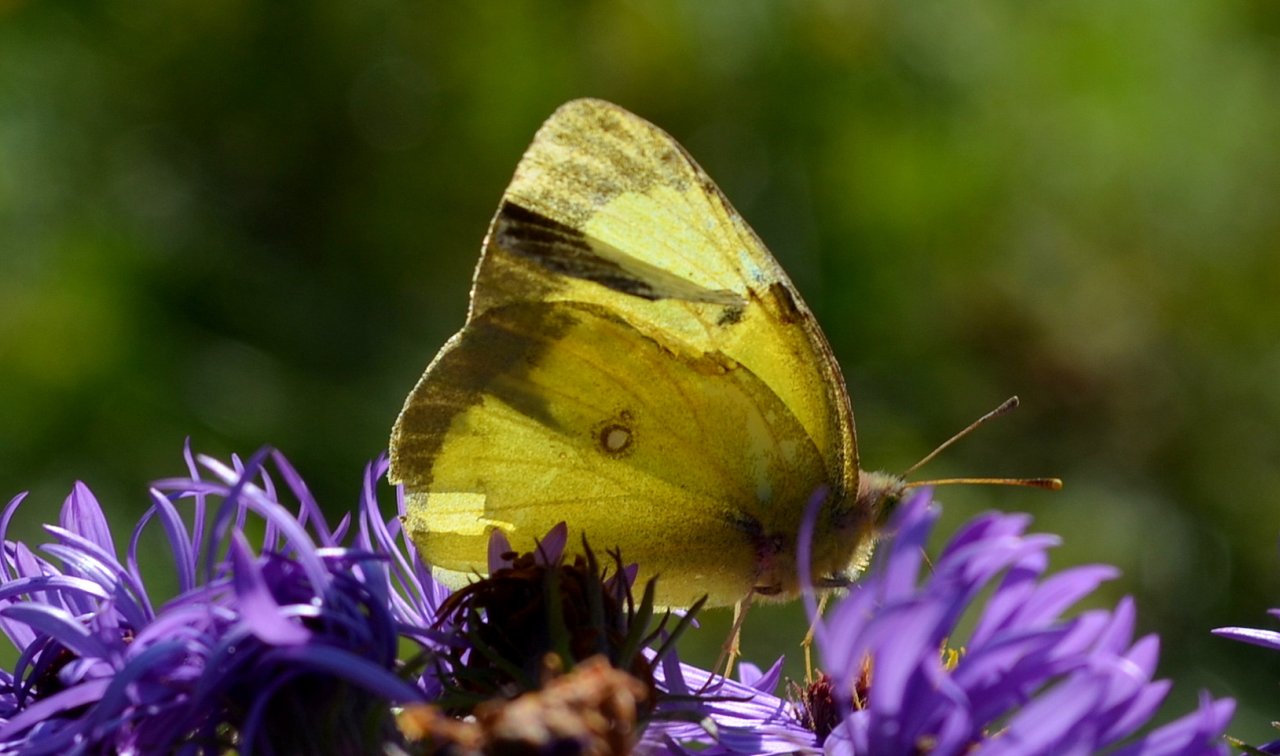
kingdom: Animalia
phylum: Arthropoda
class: Insecta
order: Lepidoptera
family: Pieridae
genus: Colias
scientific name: Colias philodice
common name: Clouded Sulphur
